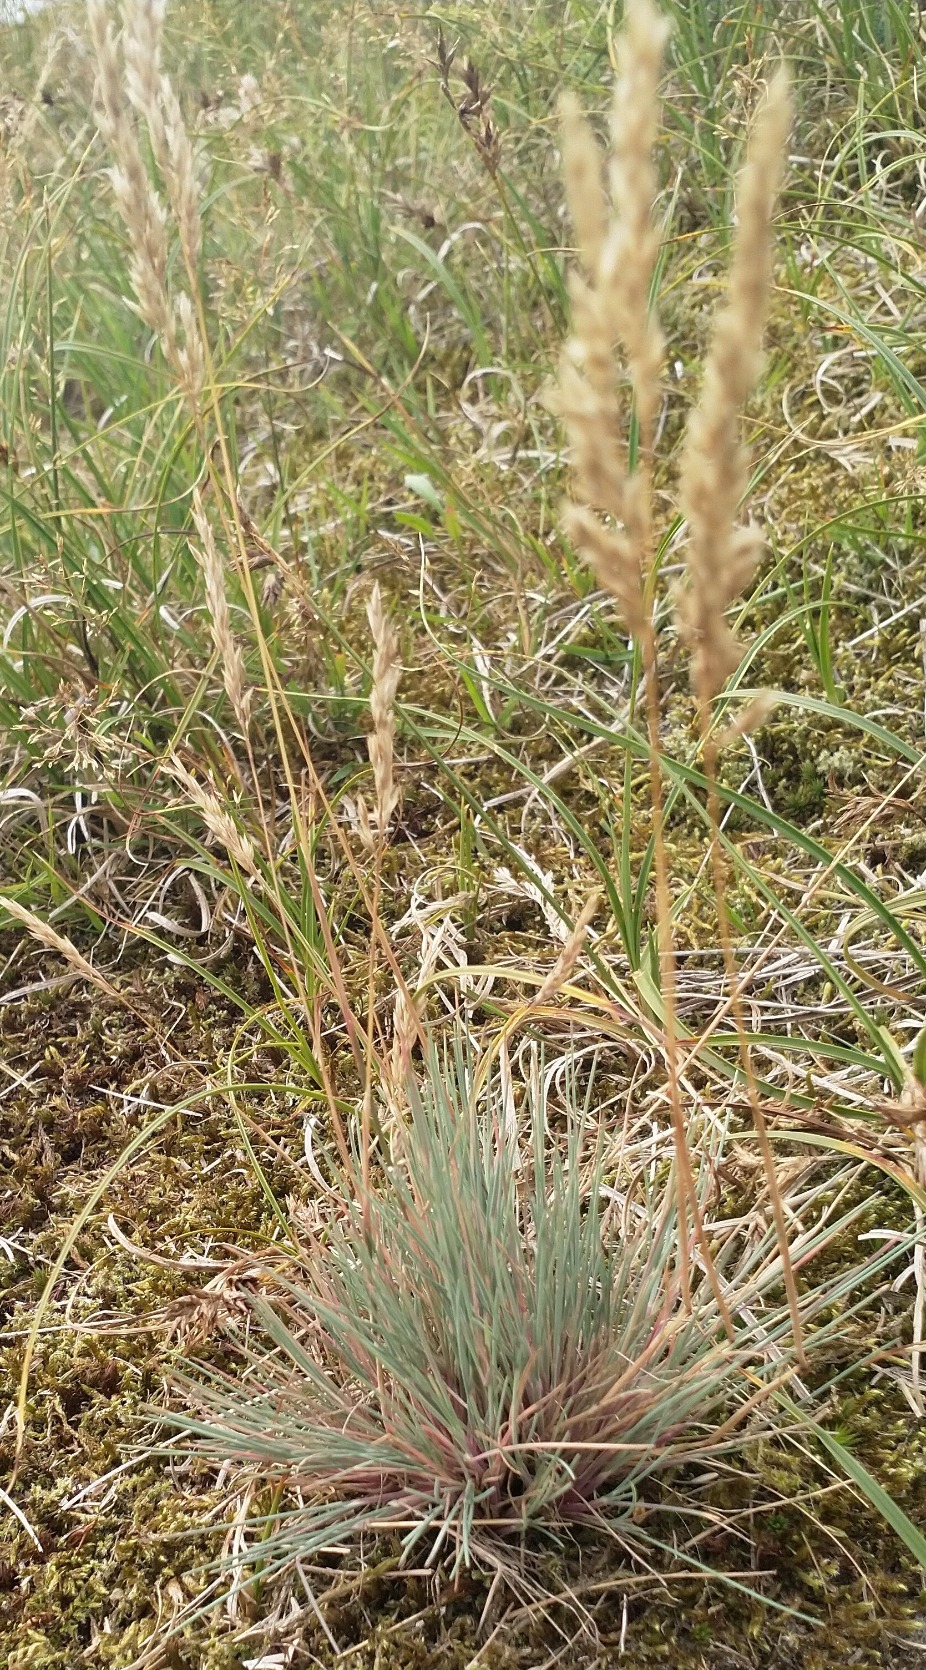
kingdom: Plantae
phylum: Tracheophyta
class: Liliopsida
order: Poales
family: Poaceae
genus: Corynephorus
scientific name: Corynephorus canescens
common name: Sandskæg
